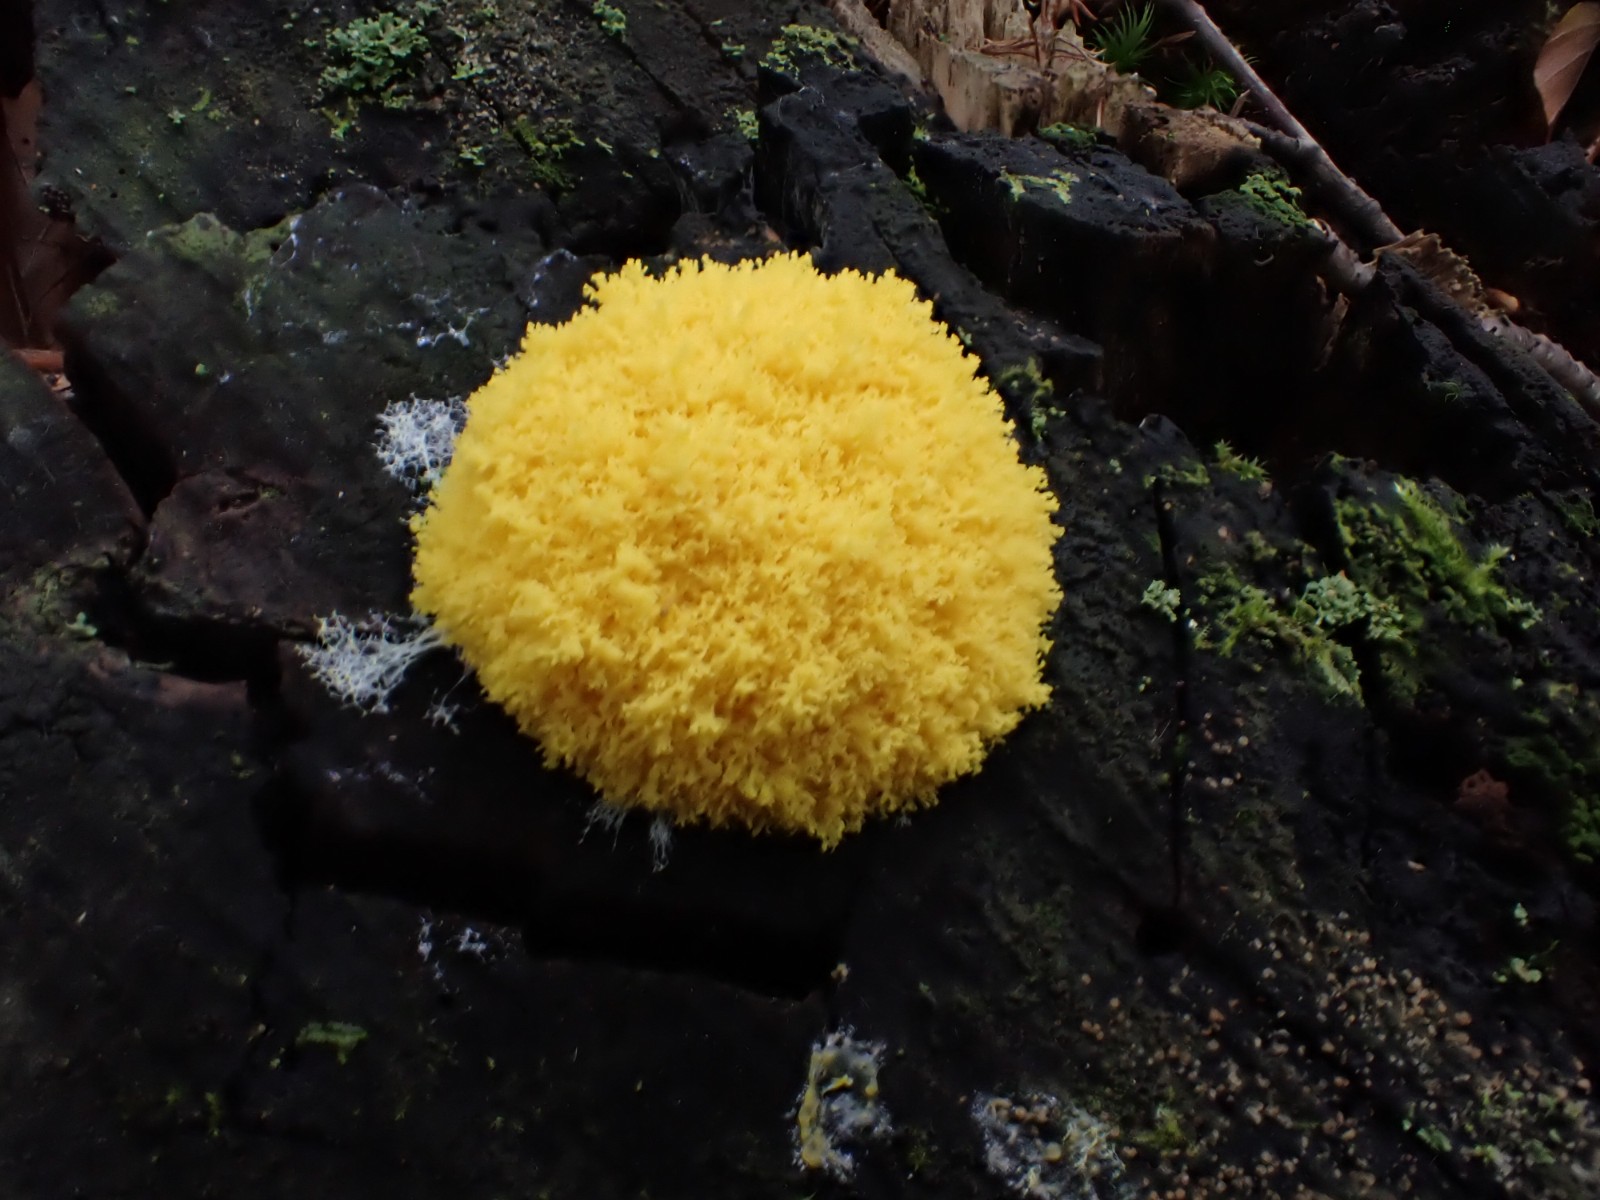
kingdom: Protozoa
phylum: Mycetozoa
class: Myxomycetes
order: Physarales
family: Physaraceae
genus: Fuligo
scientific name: Fuligo septica
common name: gul troldsmør
